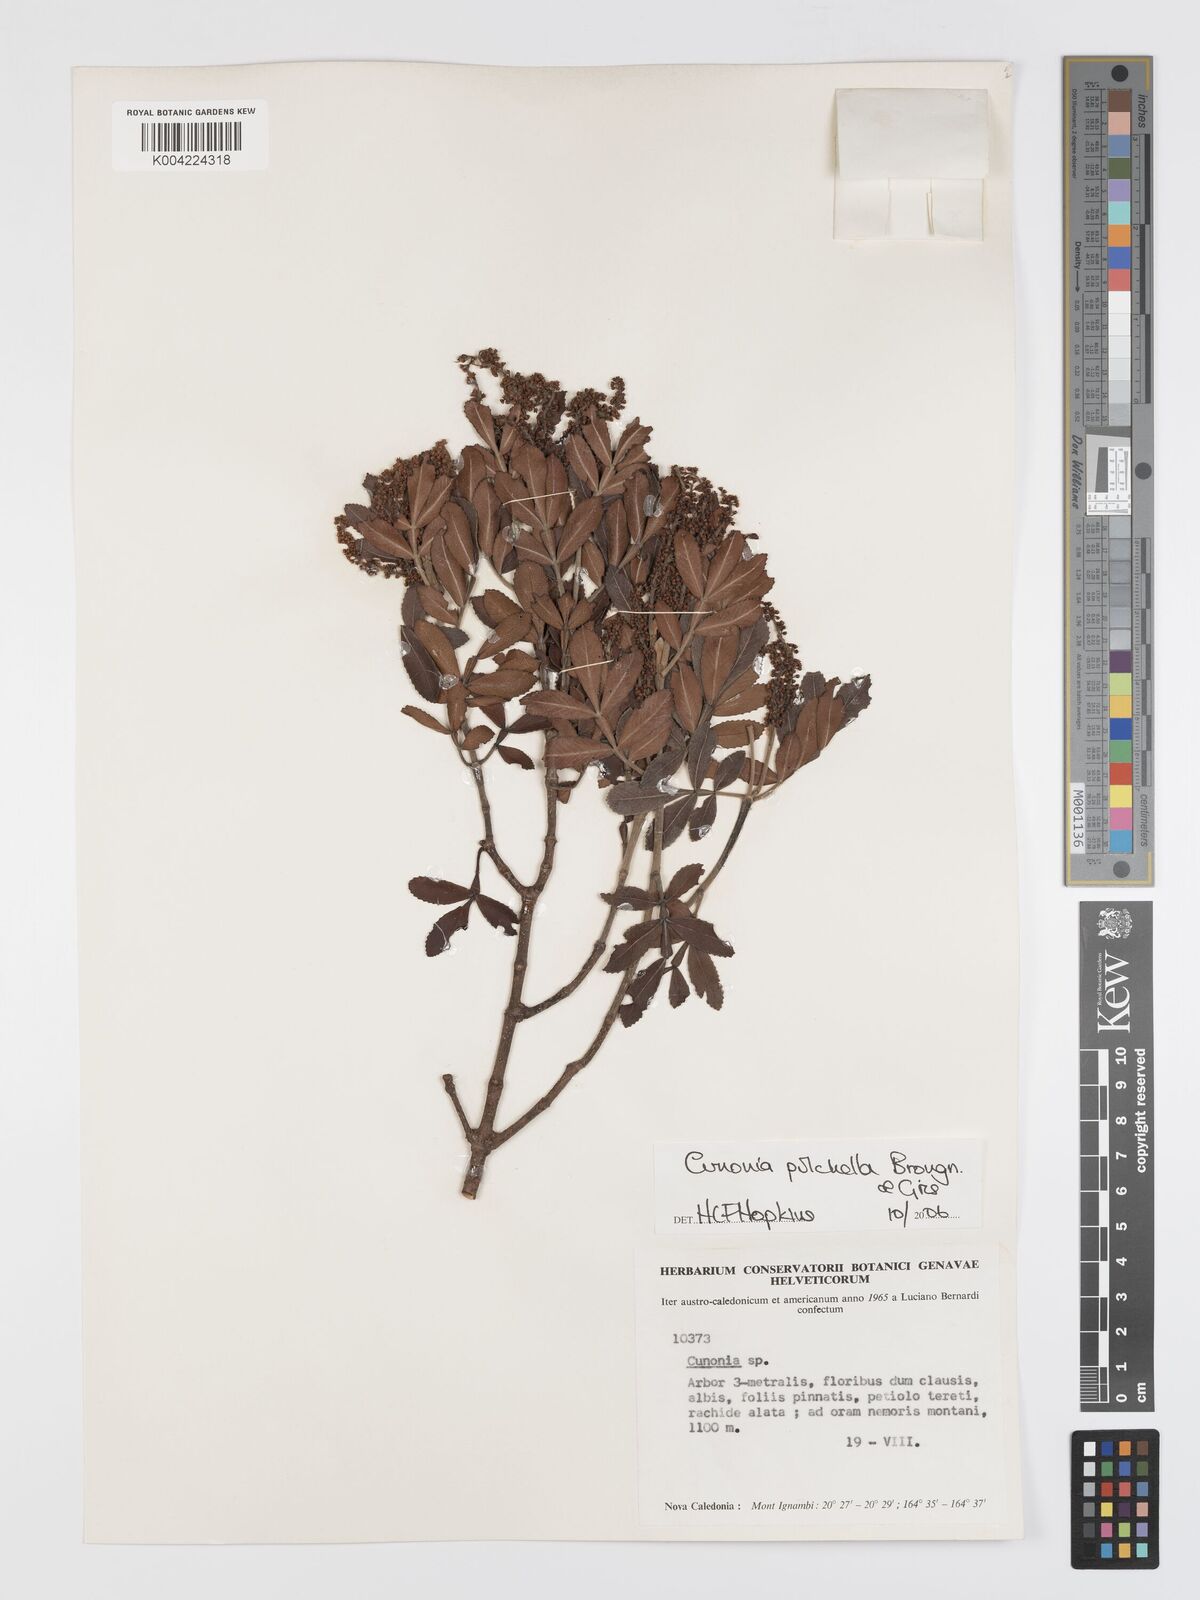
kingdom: Plantae
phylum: Tracheophyta
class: Magnoliopsida
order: Oxalidales
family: Cunoniaceae
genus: Cunonia
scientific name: Cunonia pulchella
